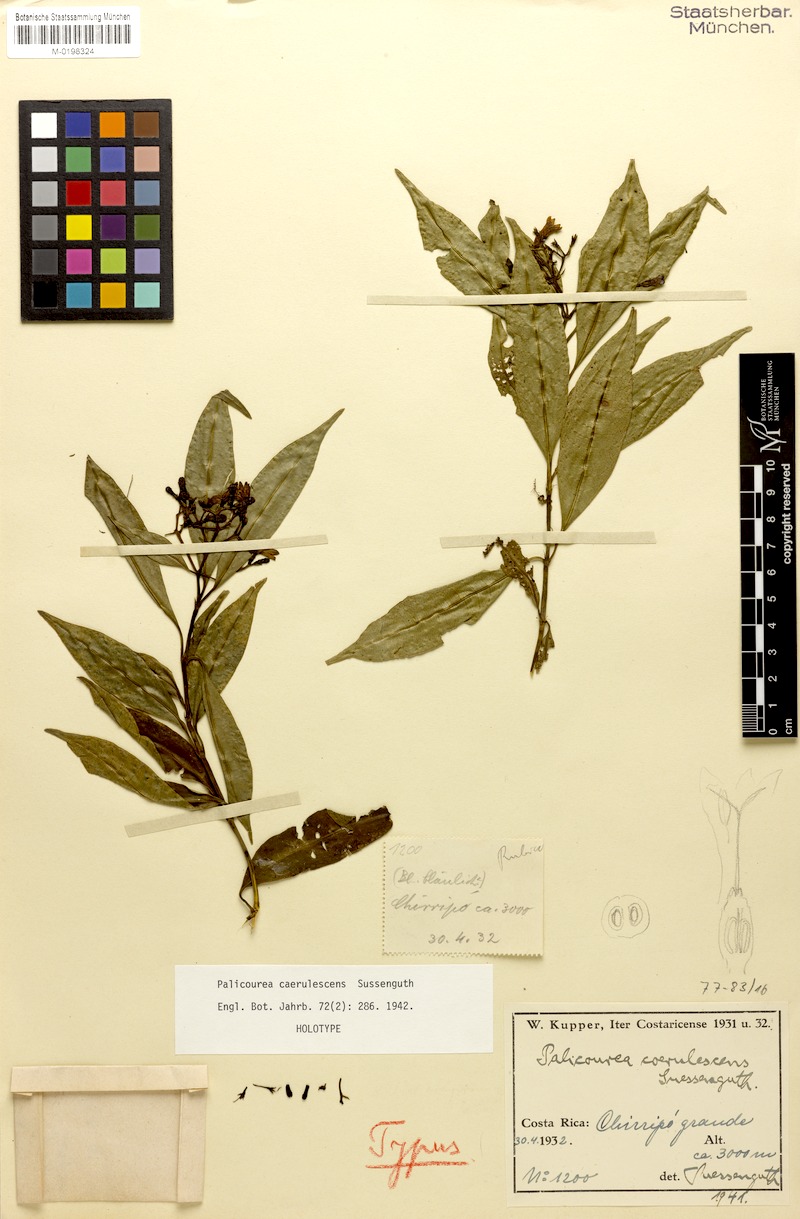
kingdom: Plantae
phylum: Tracheophyta
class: Magnoliopsida
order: Gentianales
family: Rubiaceae
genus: Palicourea
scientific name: Palicourea salicifolia
